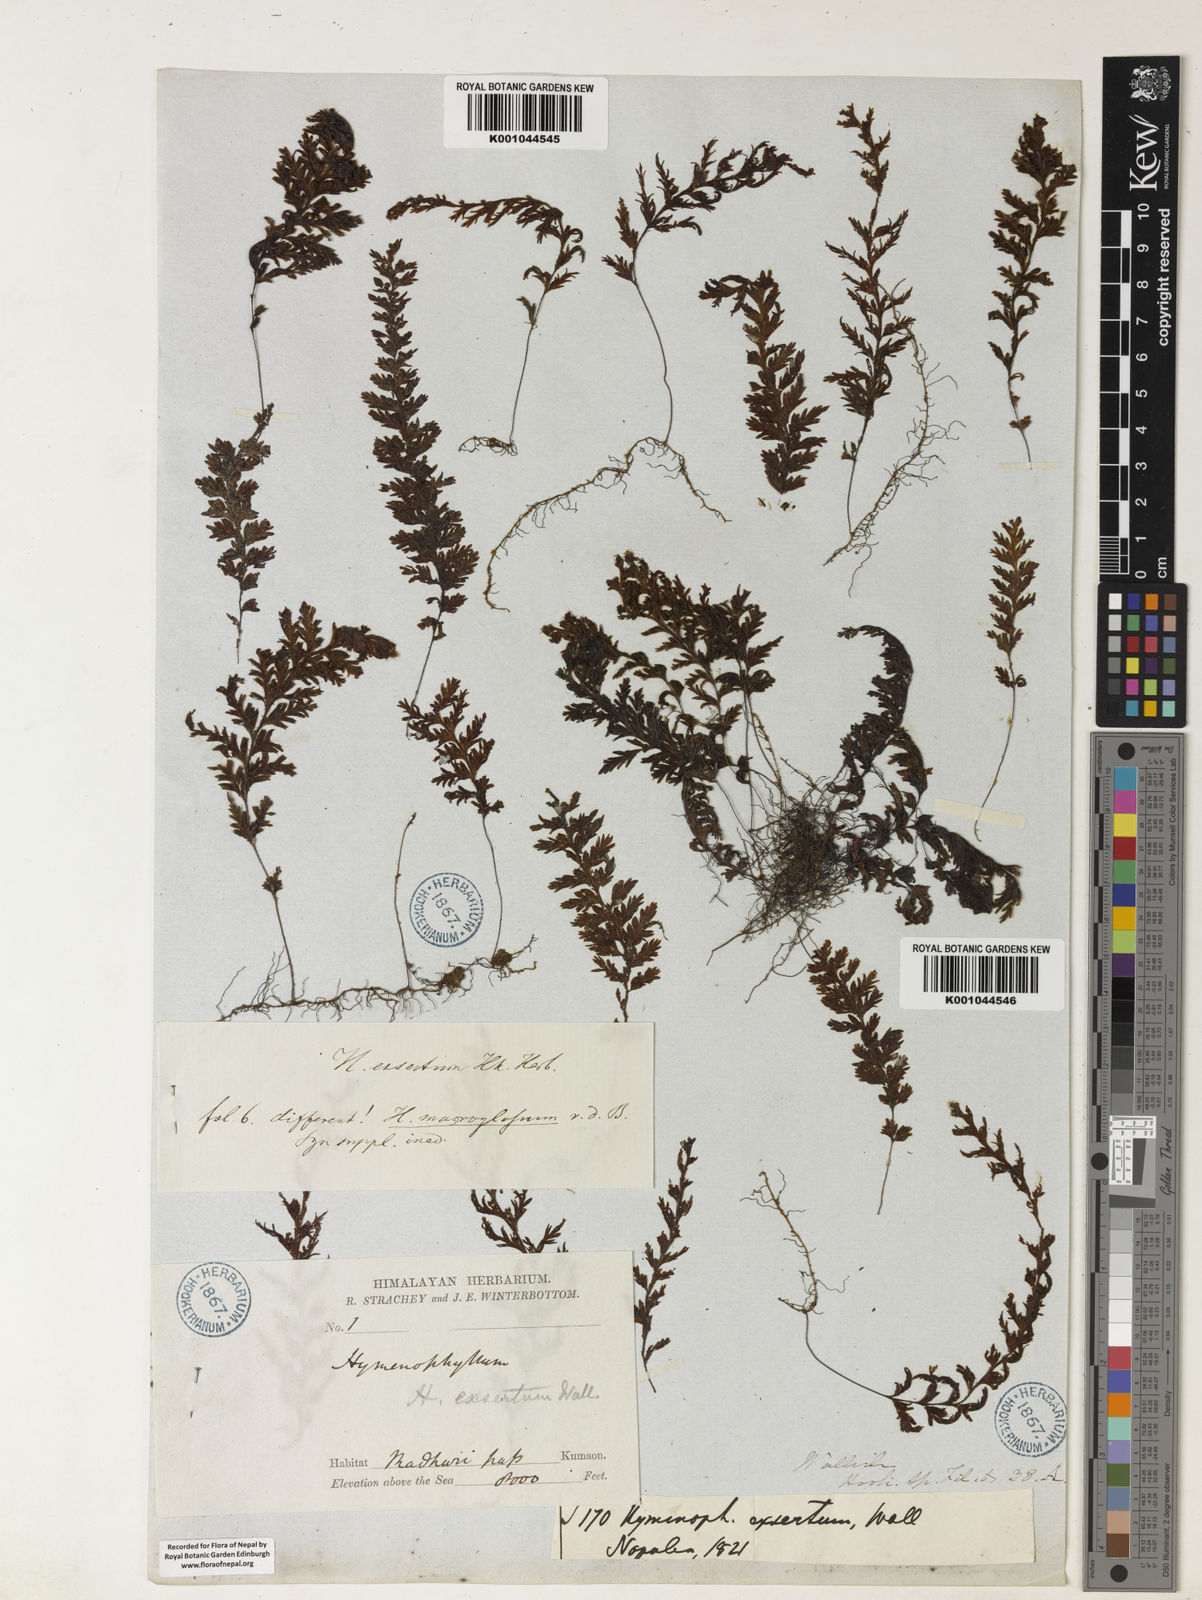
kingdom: Plantae
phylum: Tracheophyta
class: Polypodiopsida
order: Hymenophyllales
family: Hymenophyllaceae
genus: Hymenophyllum
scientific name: Hymenophyllum exsertum
